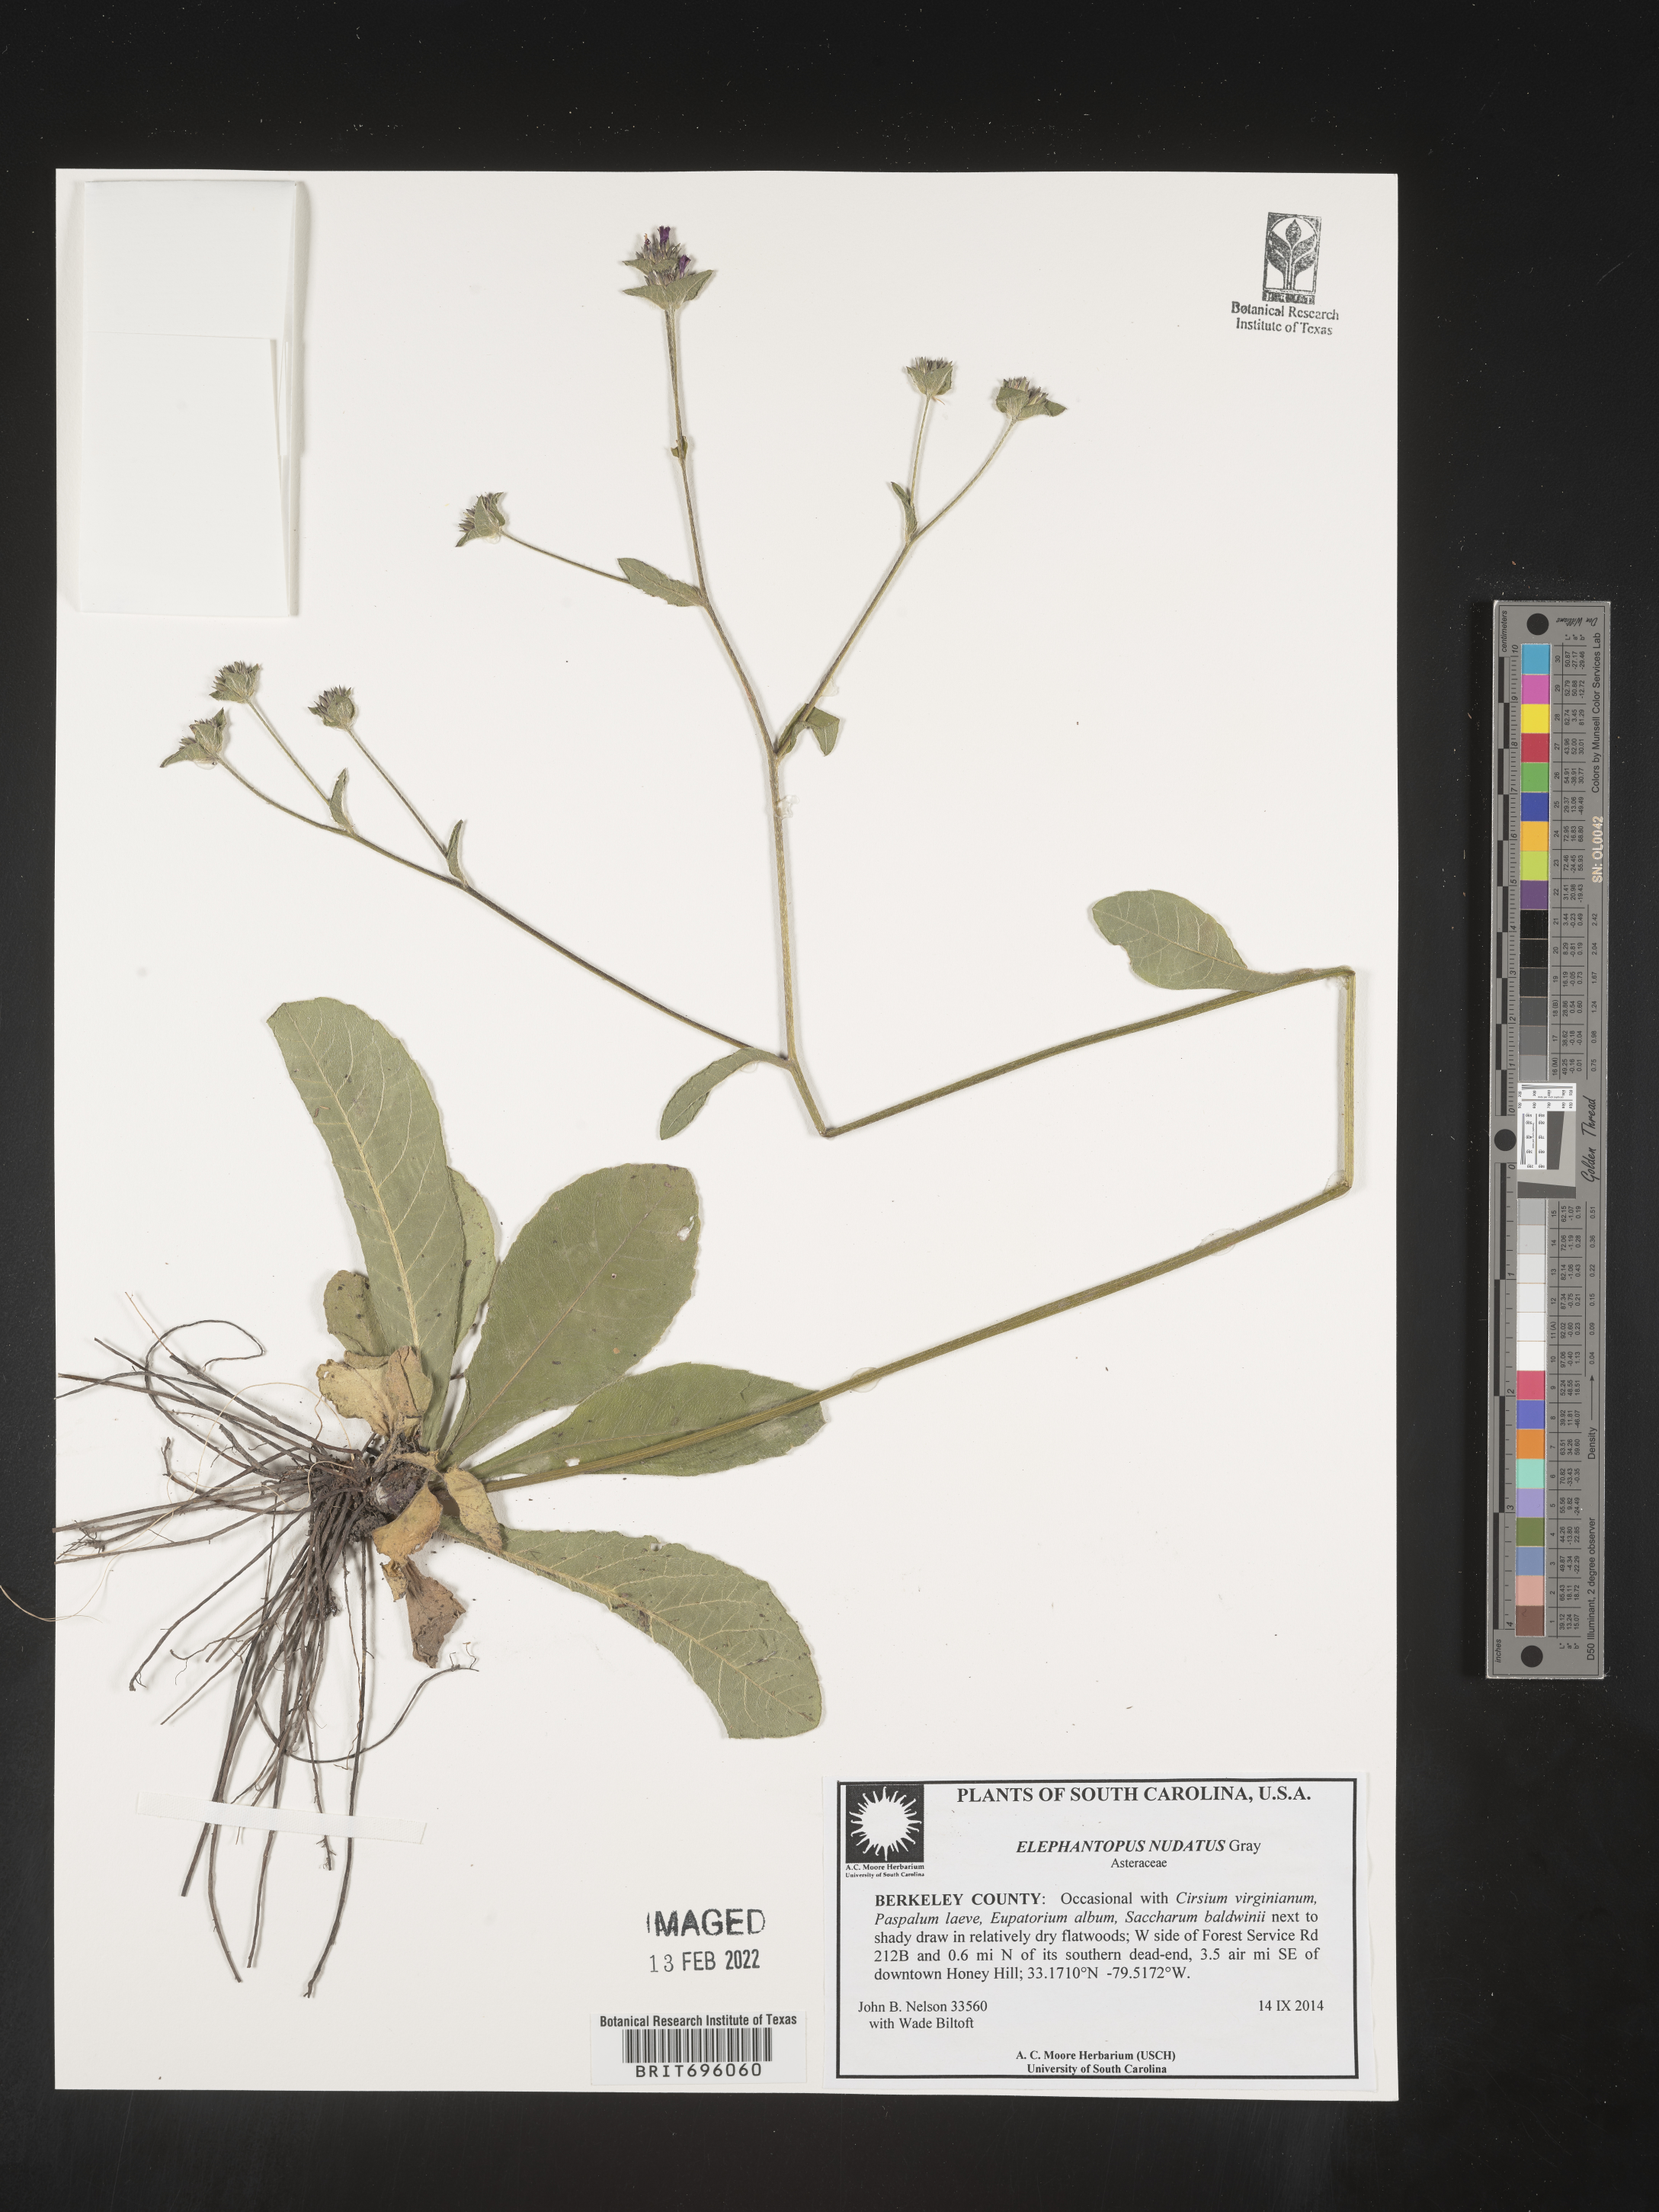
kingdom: Plantae
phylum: Tracheophyta
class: Magnoliopsida
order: Asterales
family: Asteraceae
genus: Elephantopus
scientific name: Elephantopus nudatus
